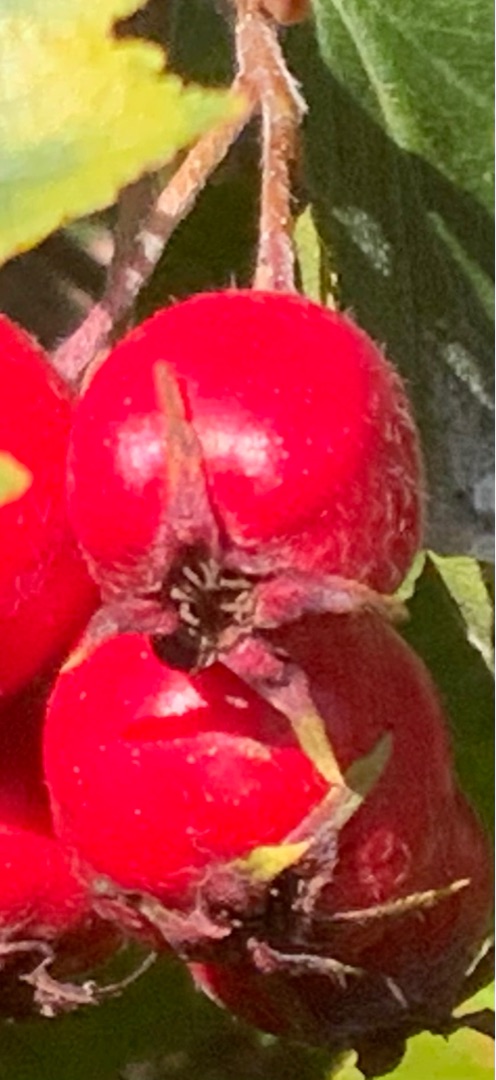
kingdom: Plantae
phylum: Tracheophyta
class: Magnoliopsida
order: Rosales
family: Rosaceae
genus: Crataegus
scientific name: Crataegus coccinea
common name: Skarlagentjørn
